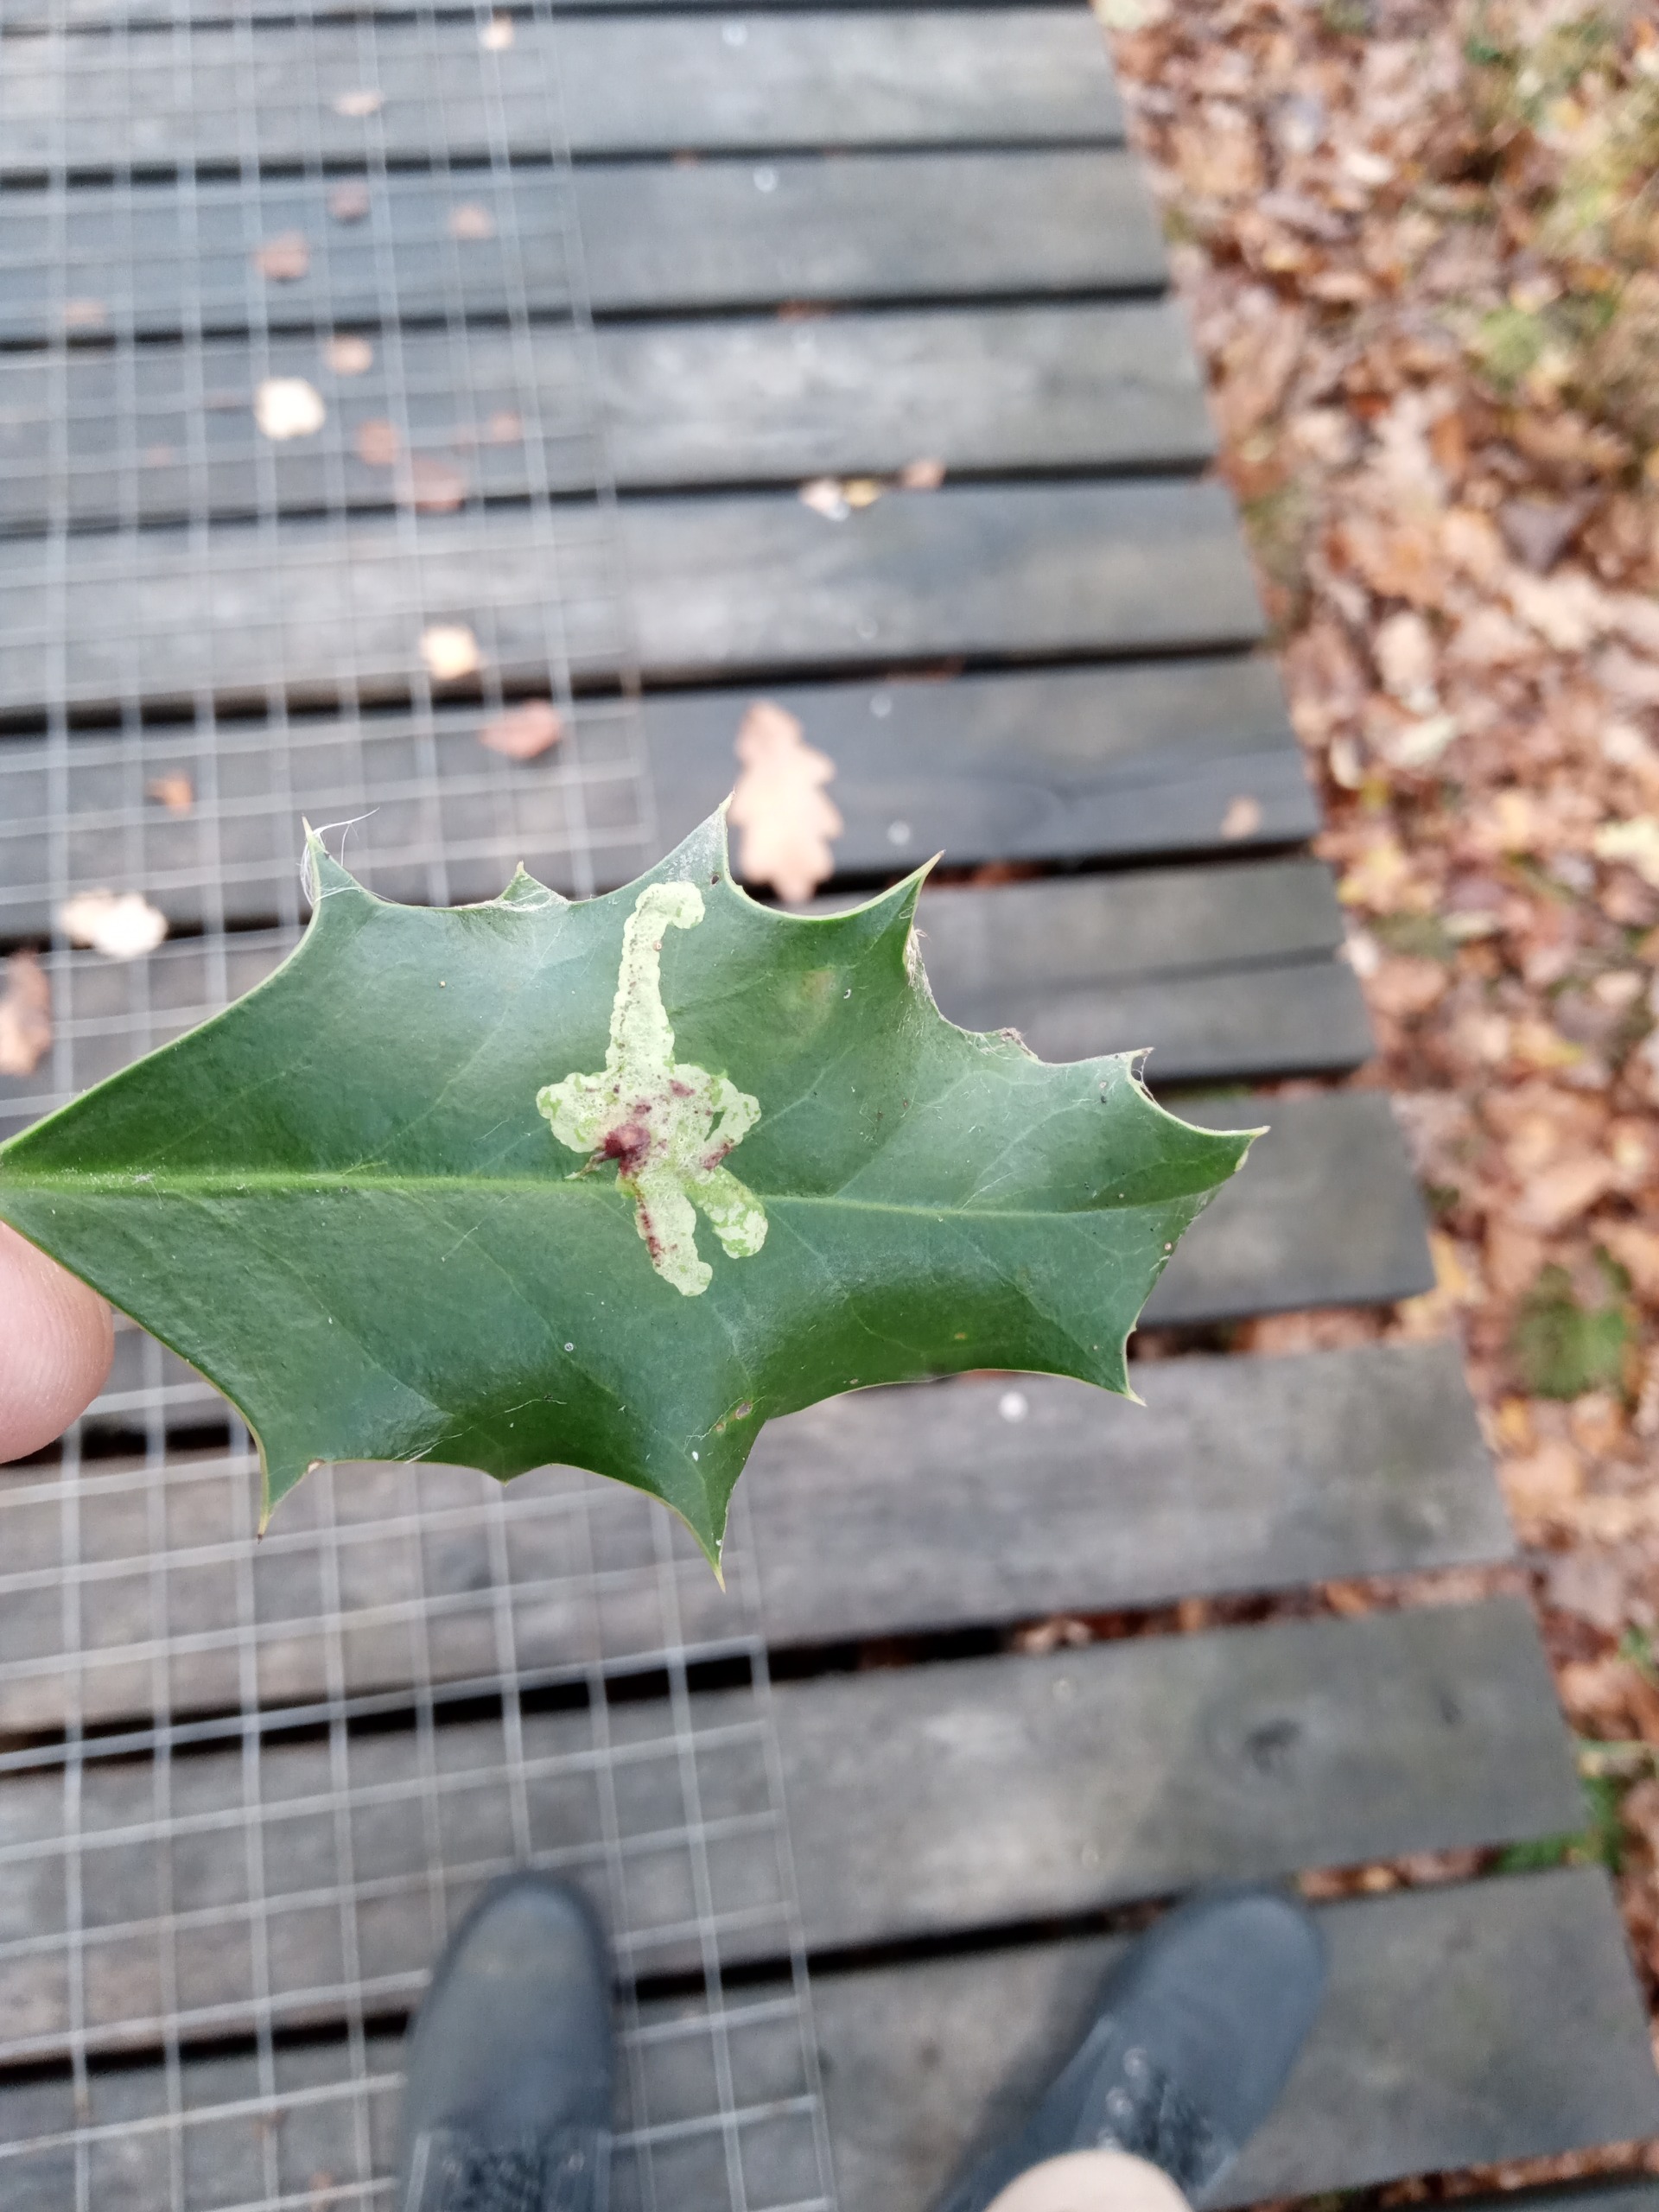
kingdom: Animalia
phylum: Arthropoda
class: Insecta
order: Diptera
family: Agromyzidae
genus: Phytomyza
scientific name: Phytomyza ilicis
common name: Kristtornminérflue
